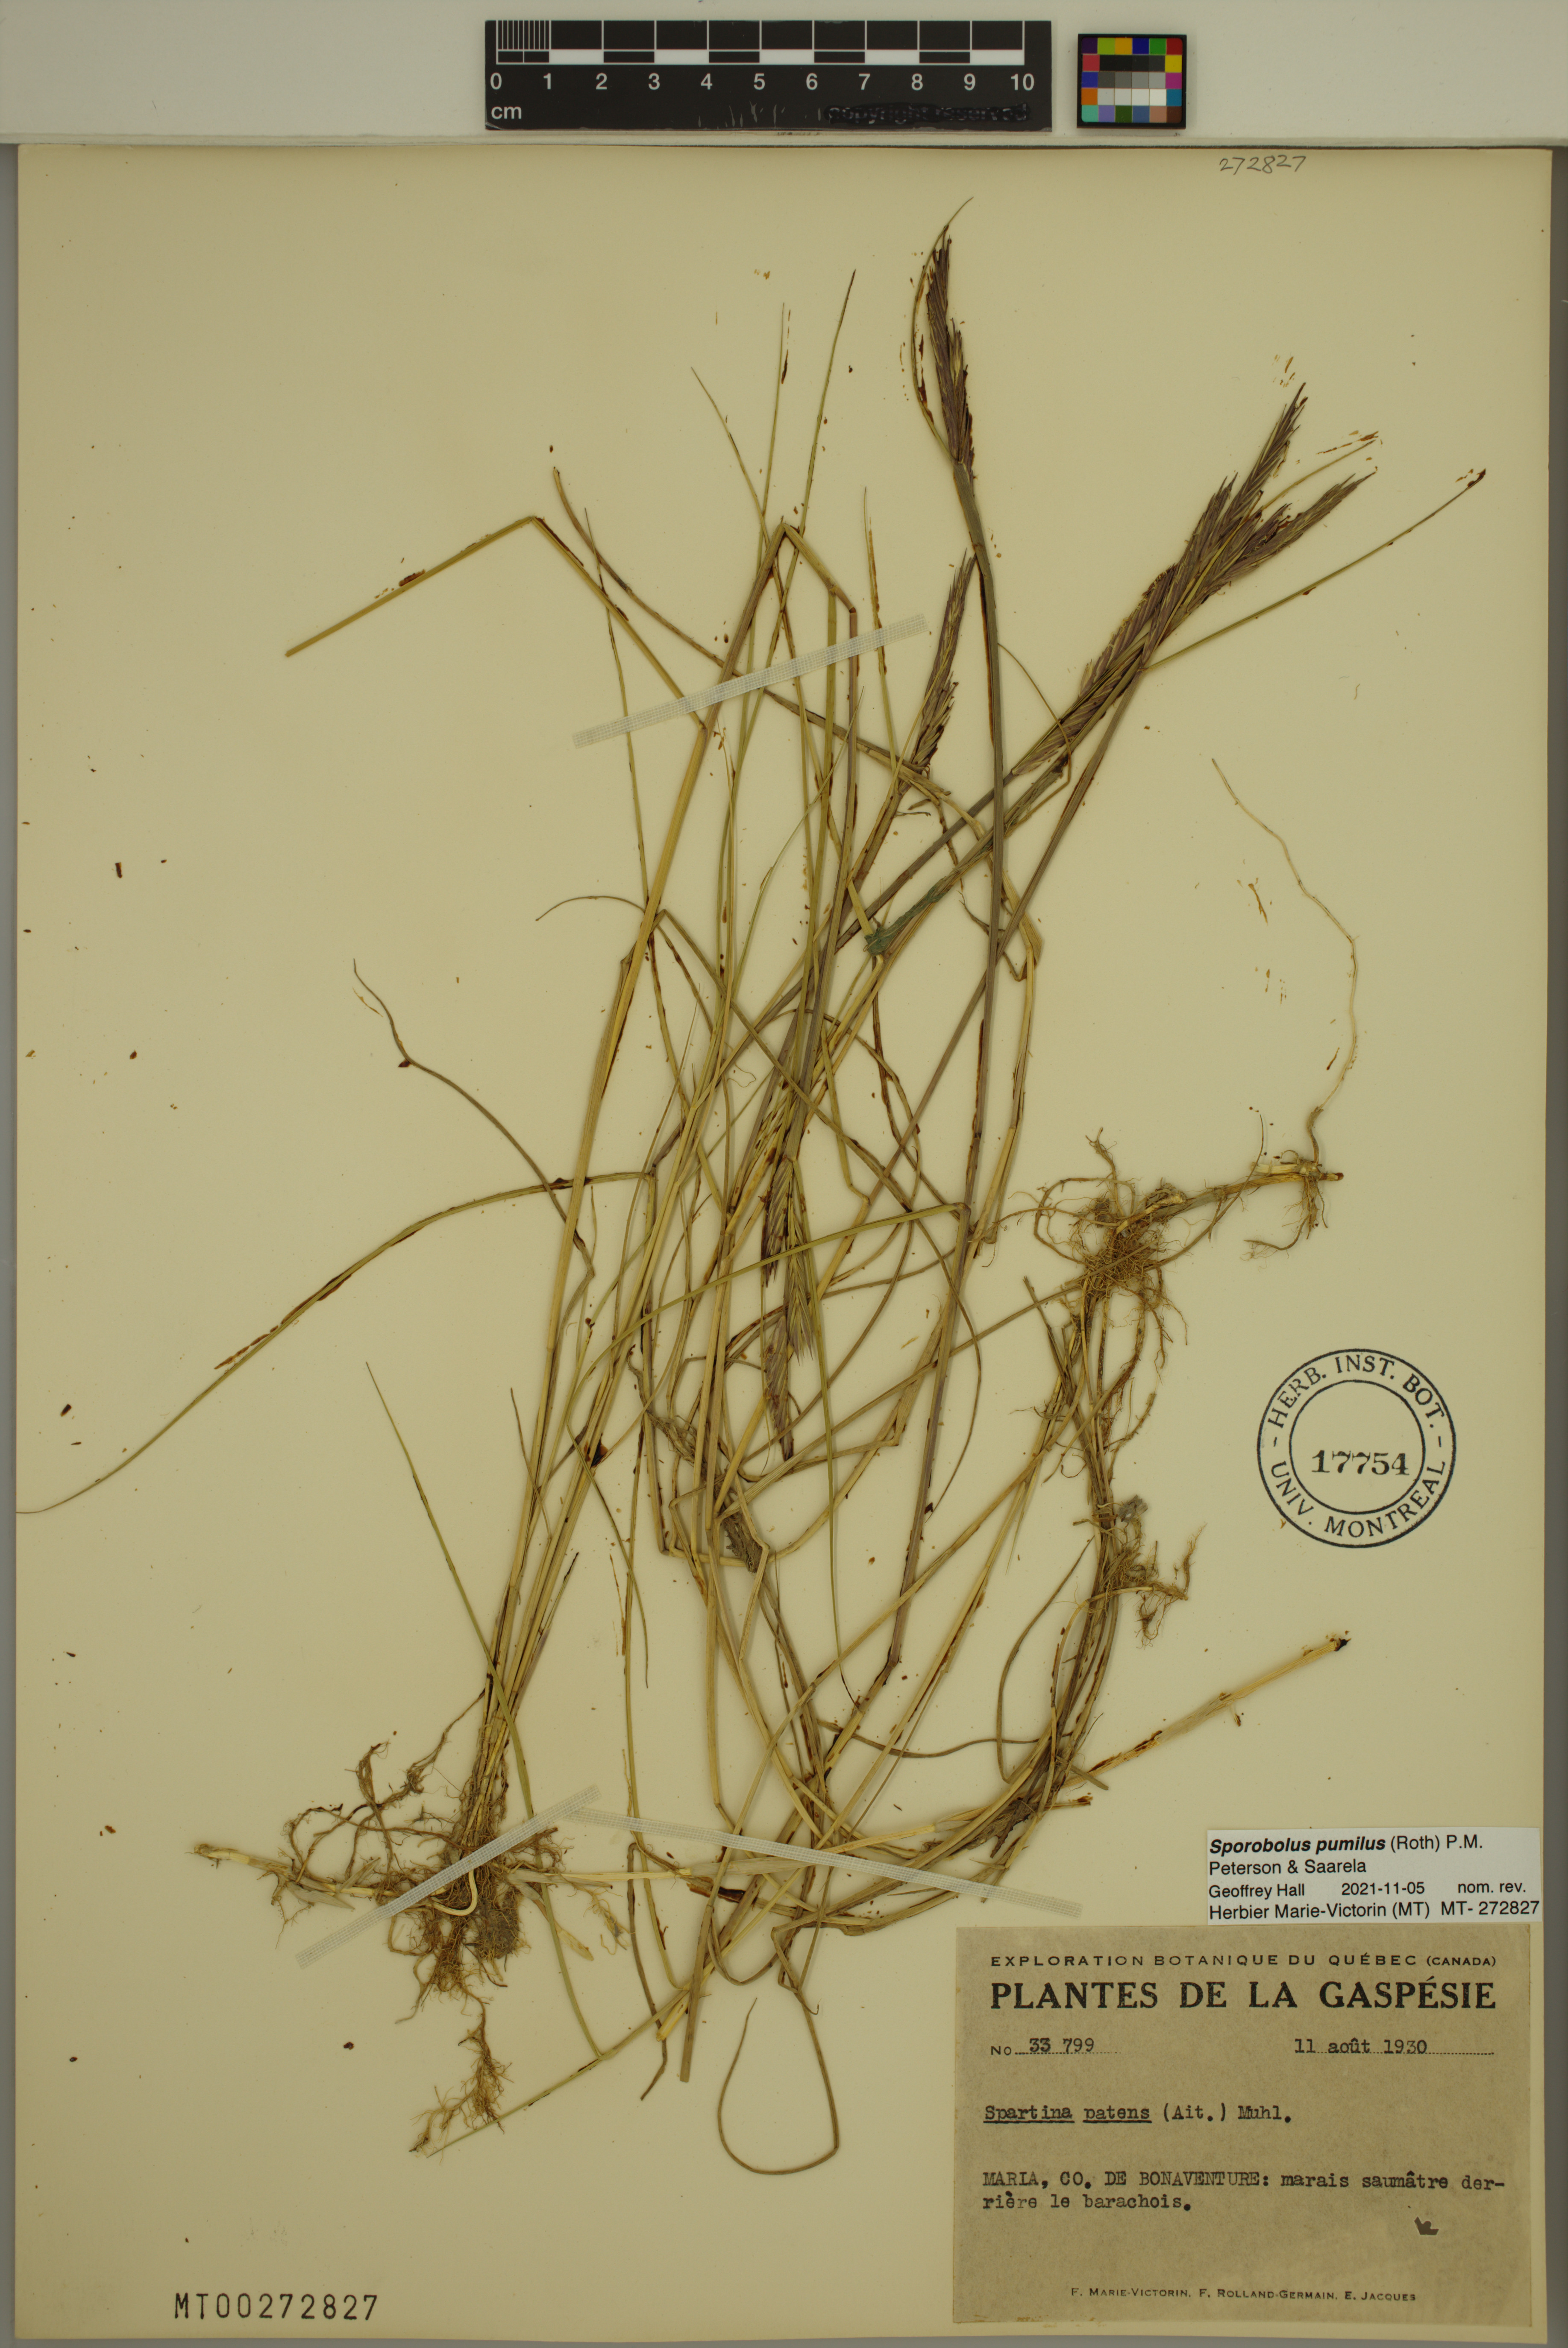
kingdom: Plantae
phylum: Tracheophyta
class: Liliopsida
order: Poales
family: Poaceae
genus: Sporobolus
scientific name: Sporobolus pumilus
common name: Highwater grass
